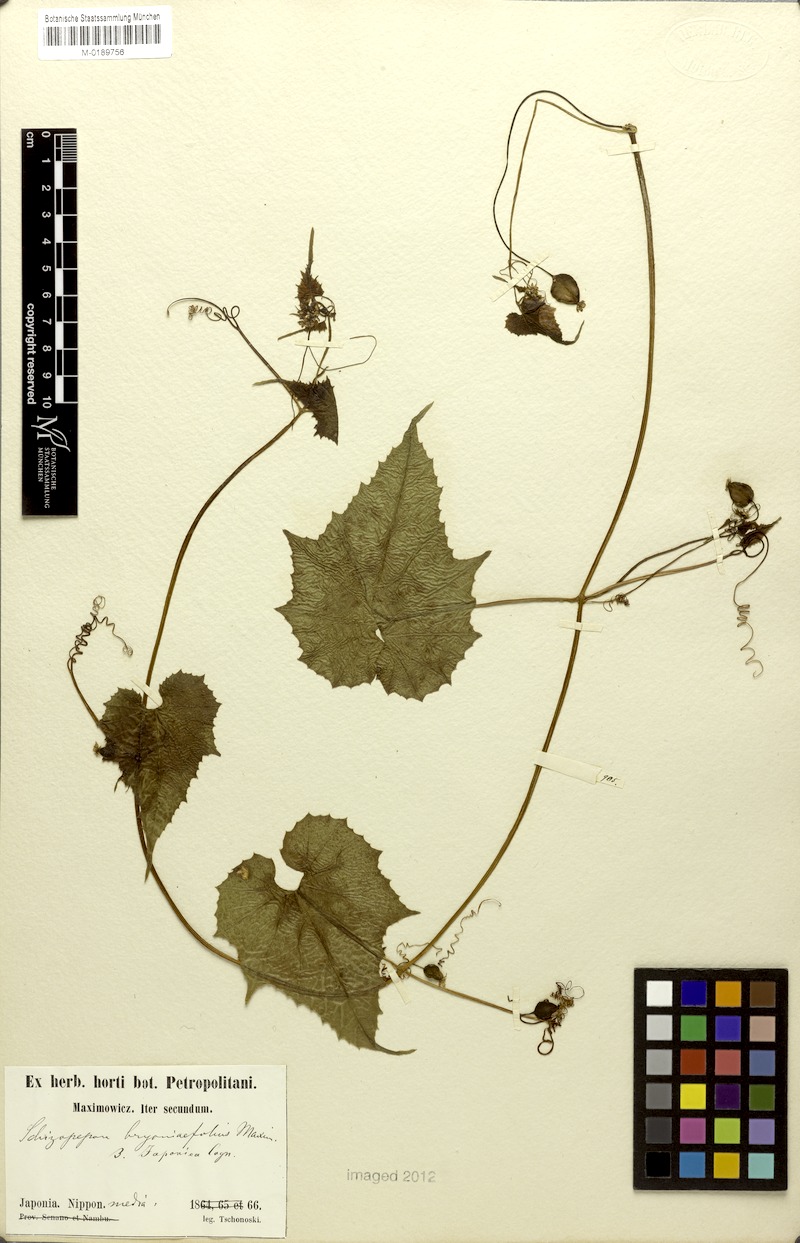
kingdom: Plantae
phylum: Tracheophyta
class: Magnoliopsida
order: Cucurbitales
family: Cucurbitaceae
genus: Schizopepon
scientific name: Schizopepon bryoniifolius
